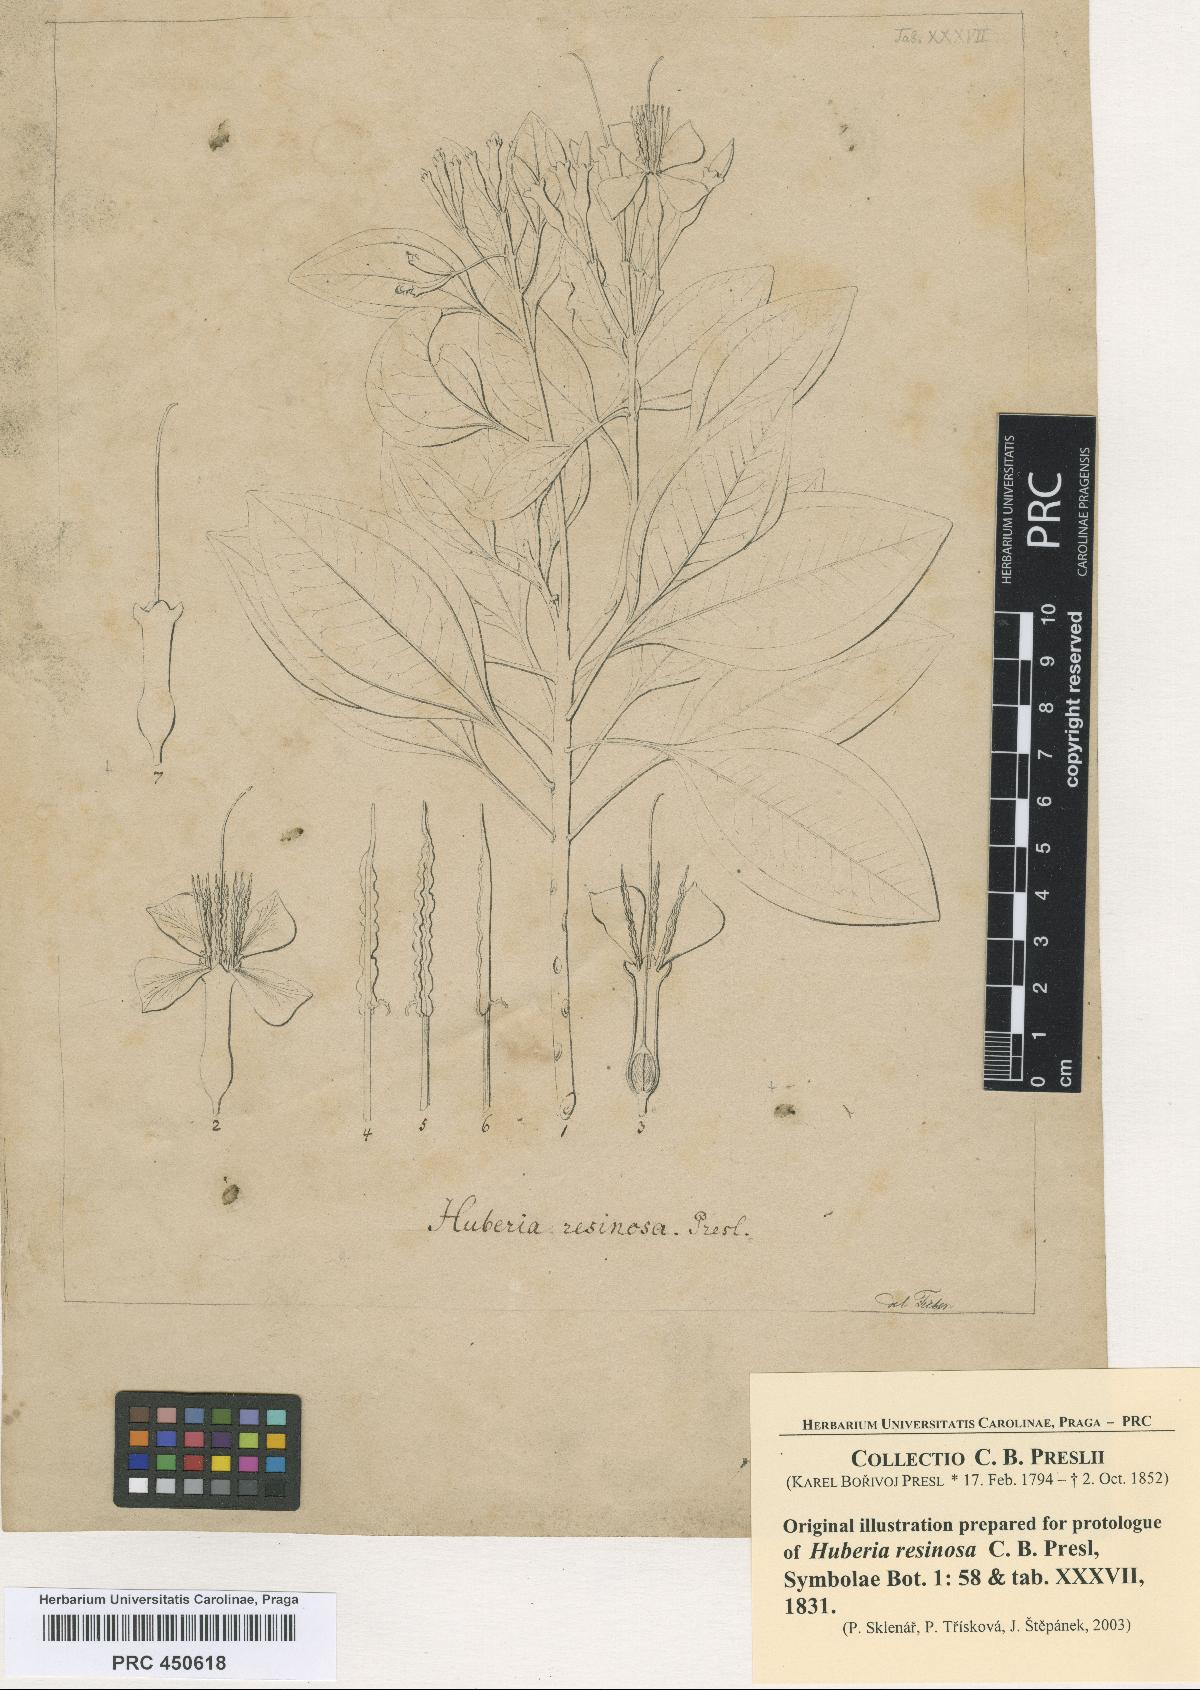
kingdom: Plantae
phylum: Tracheophyta
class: Magnoliopsida
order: Myrtales
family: Melastomataceae
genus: Huberia
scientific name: Huberia ovalifolia
